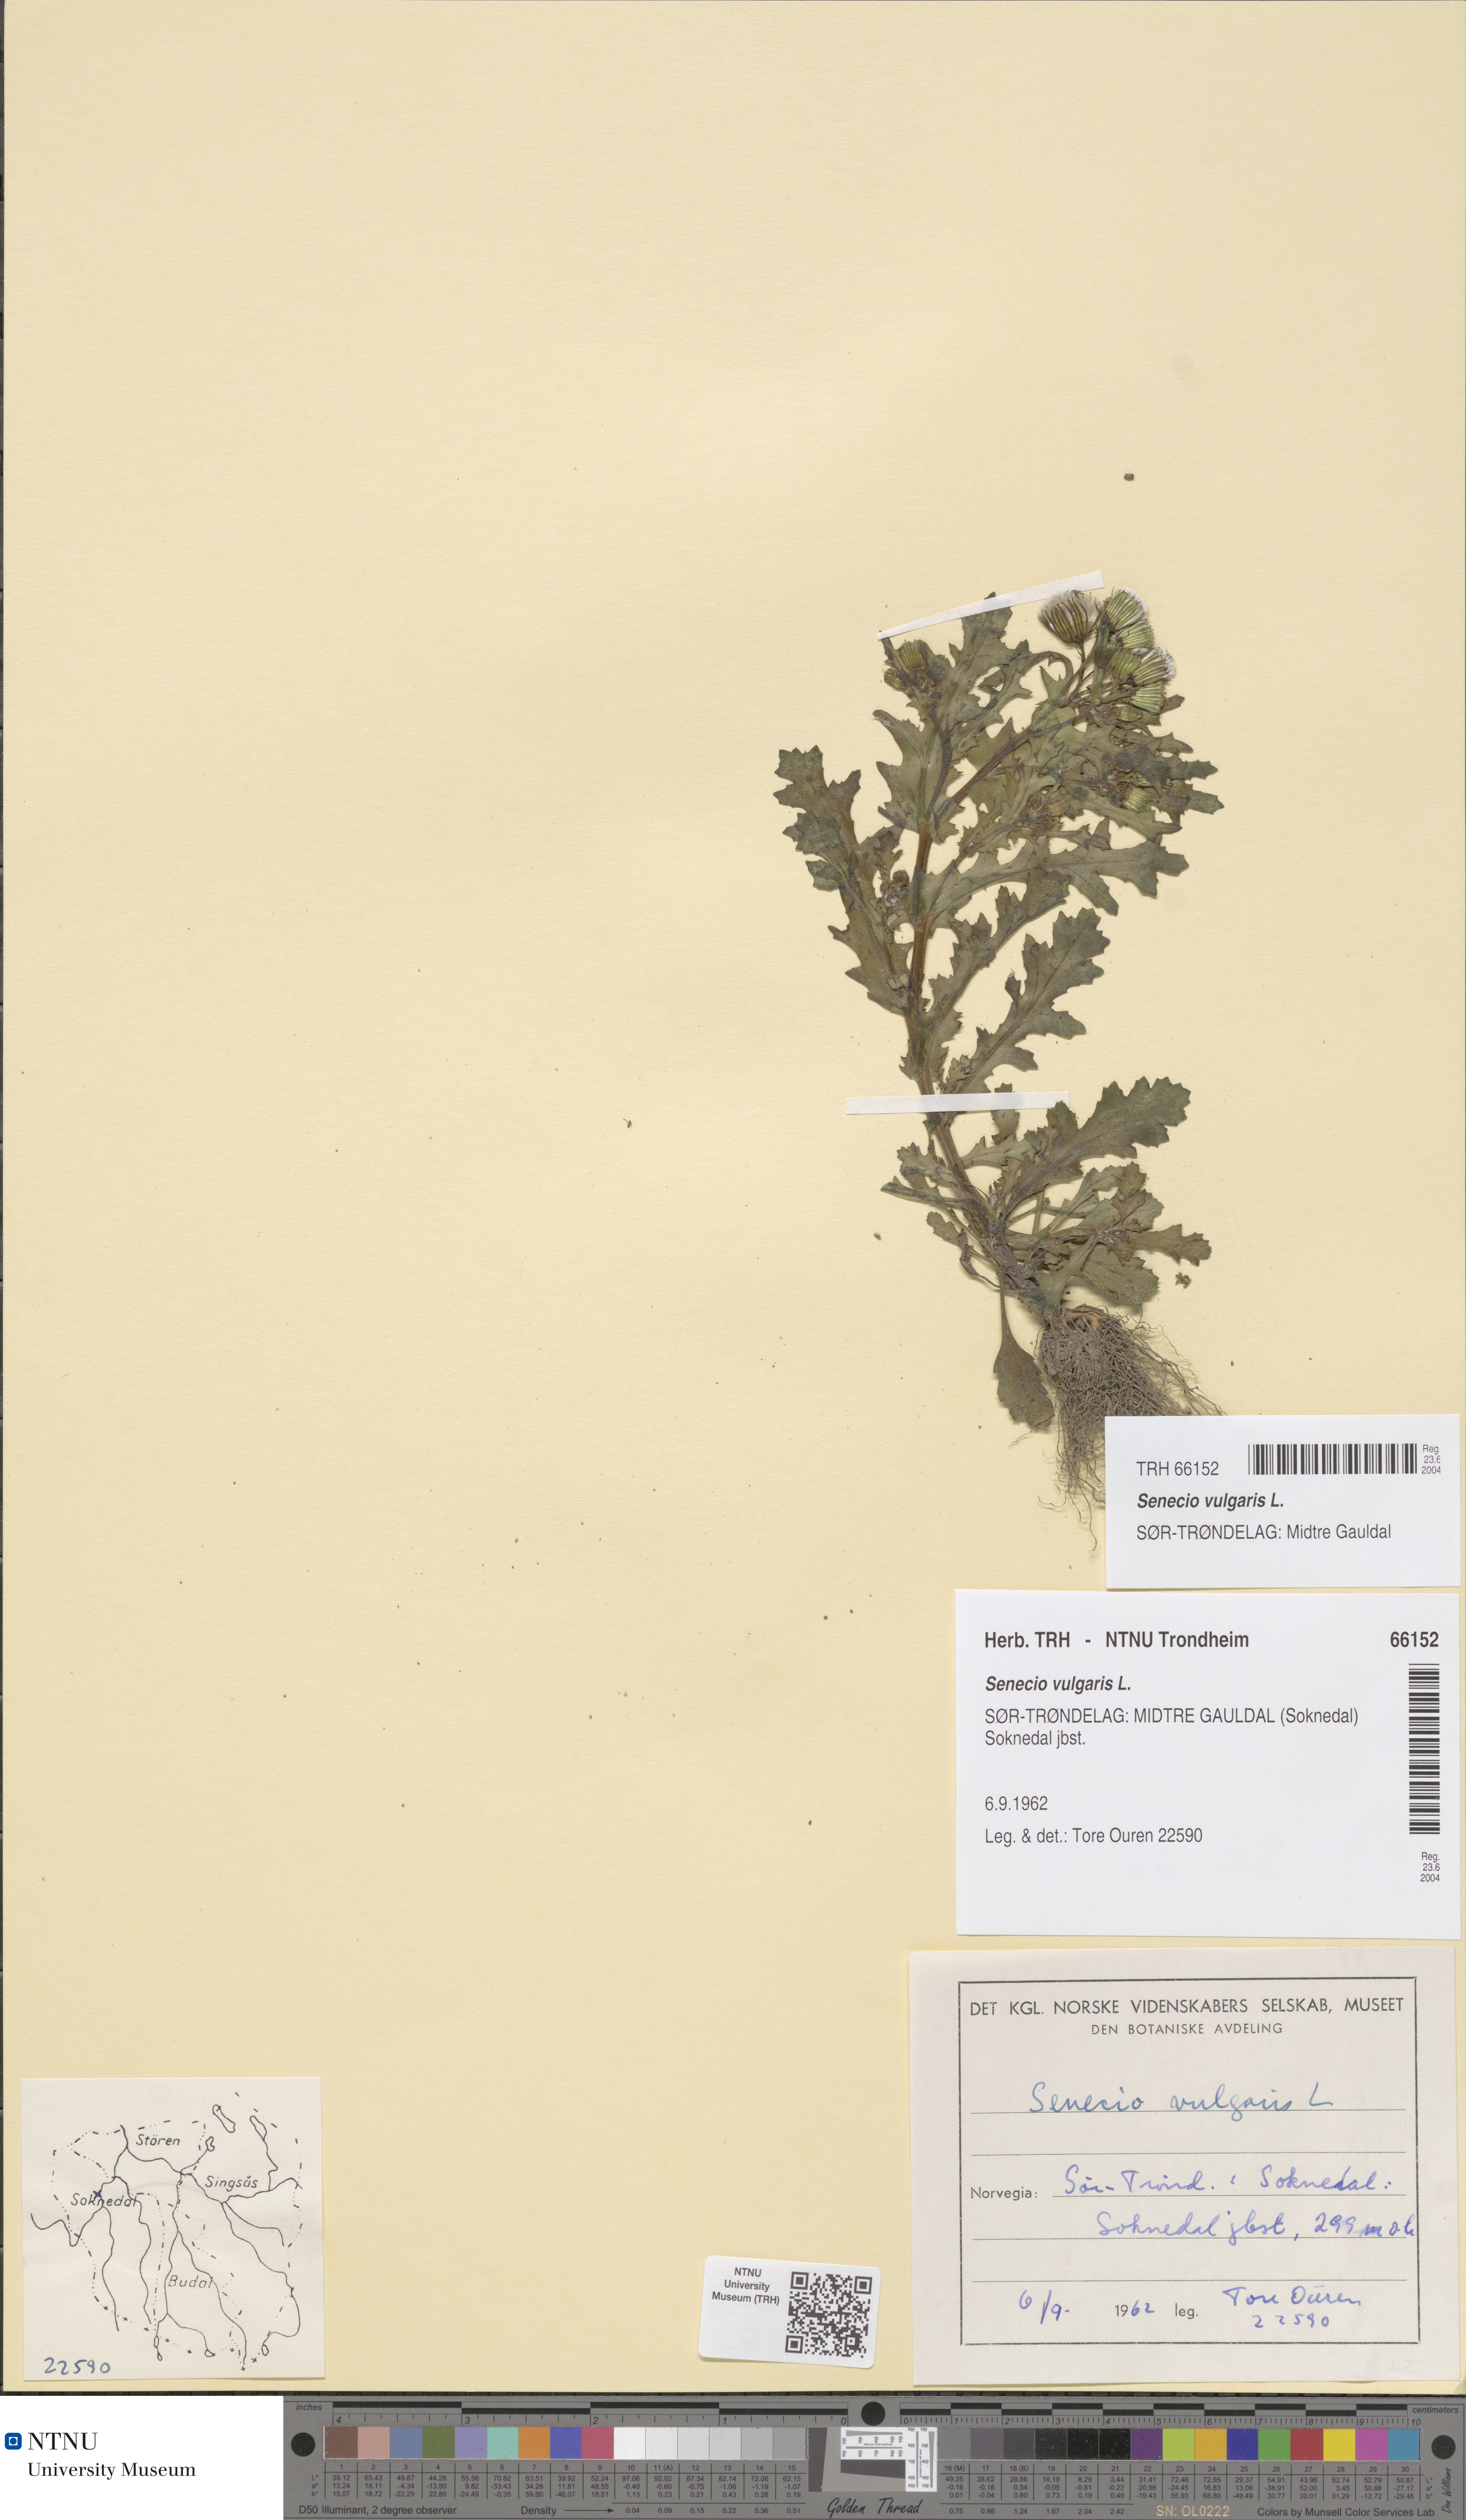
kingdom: Plantae
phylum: Tracheophyta
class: Magnoliopsida
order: Asterales
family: Asteraceae
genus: Senecio
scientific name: Senecio vulgaris
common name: Old-man-in-the-spring
